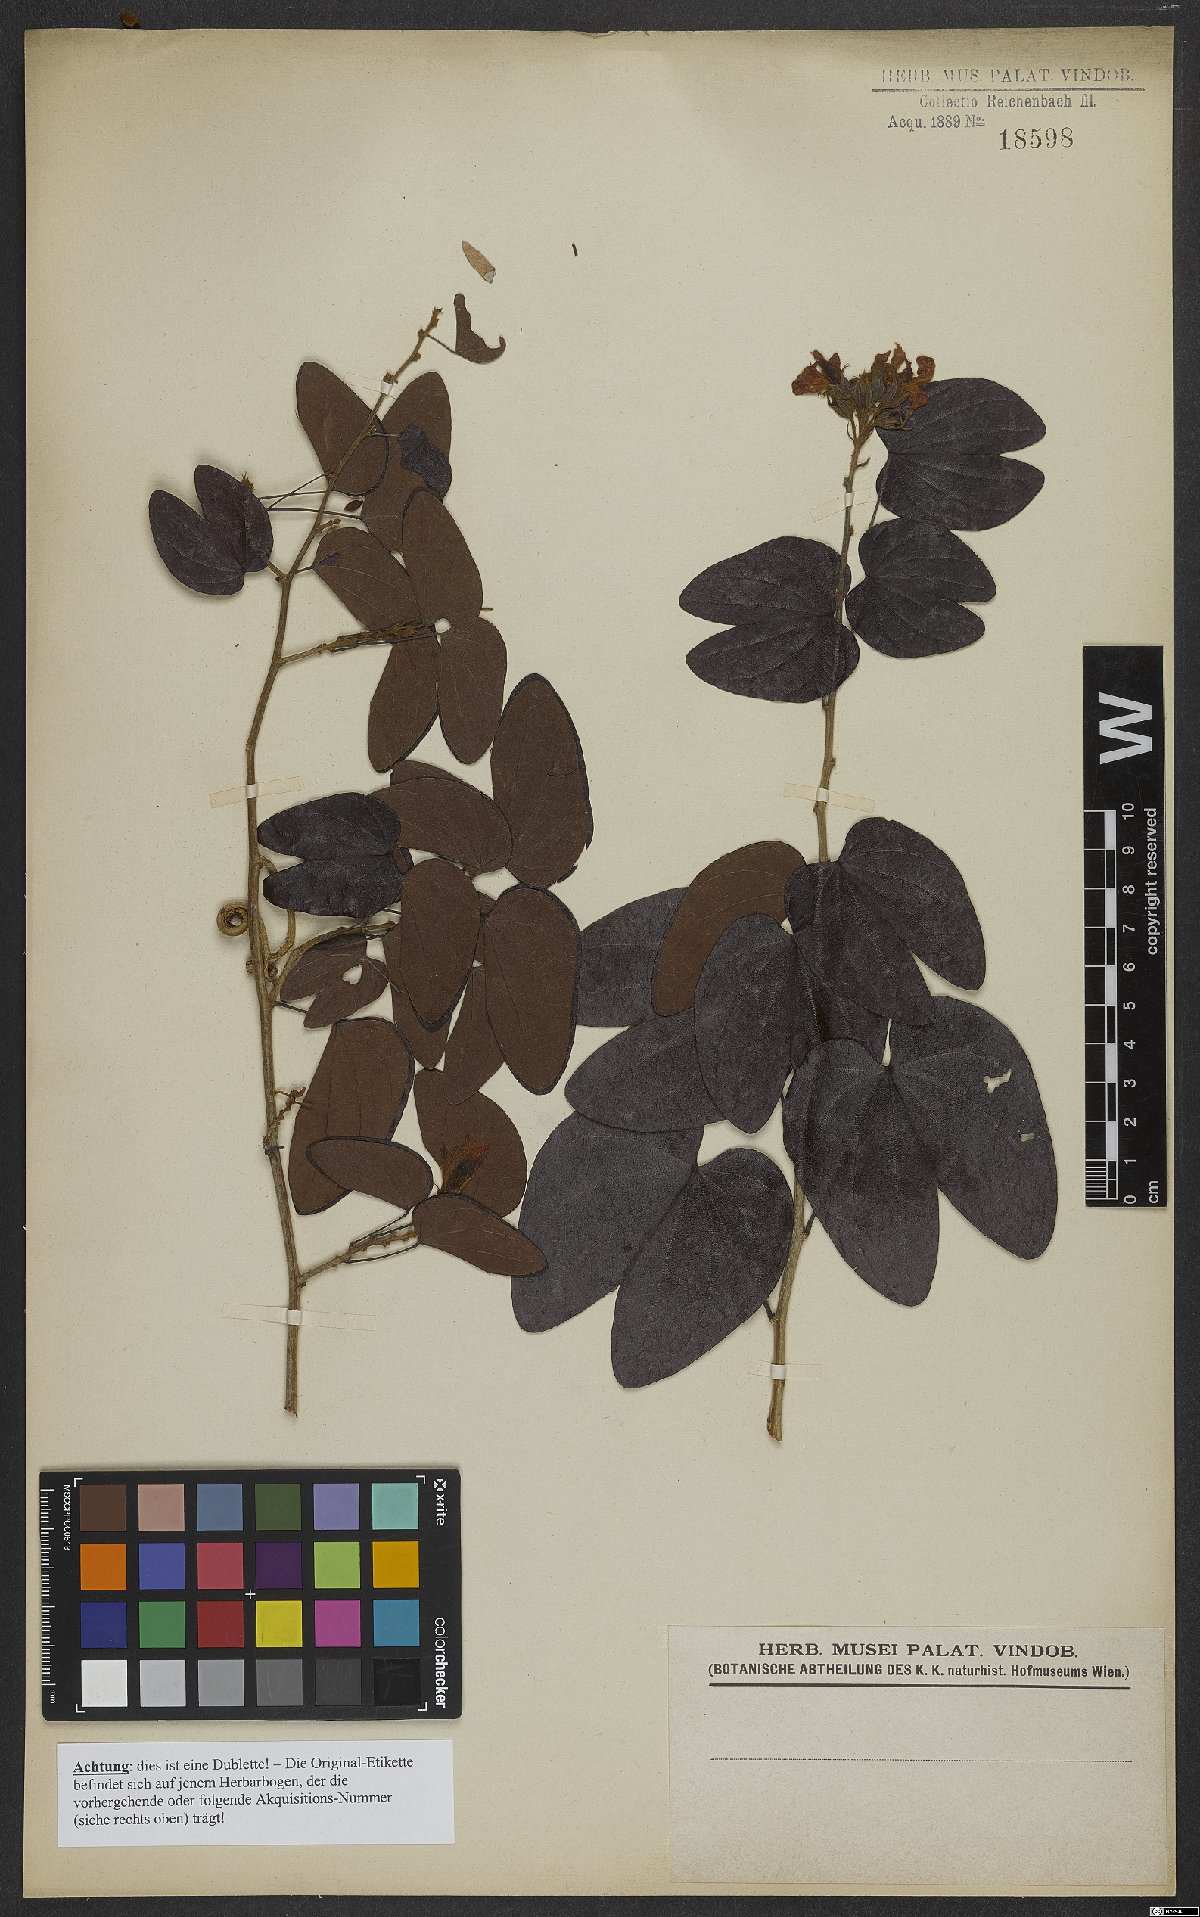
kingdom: Plantae
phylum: Tracheophyta
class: Magnoliopsida
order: Fabales
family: Fabaceae
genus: Bauhinia
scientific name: Bauhinia
